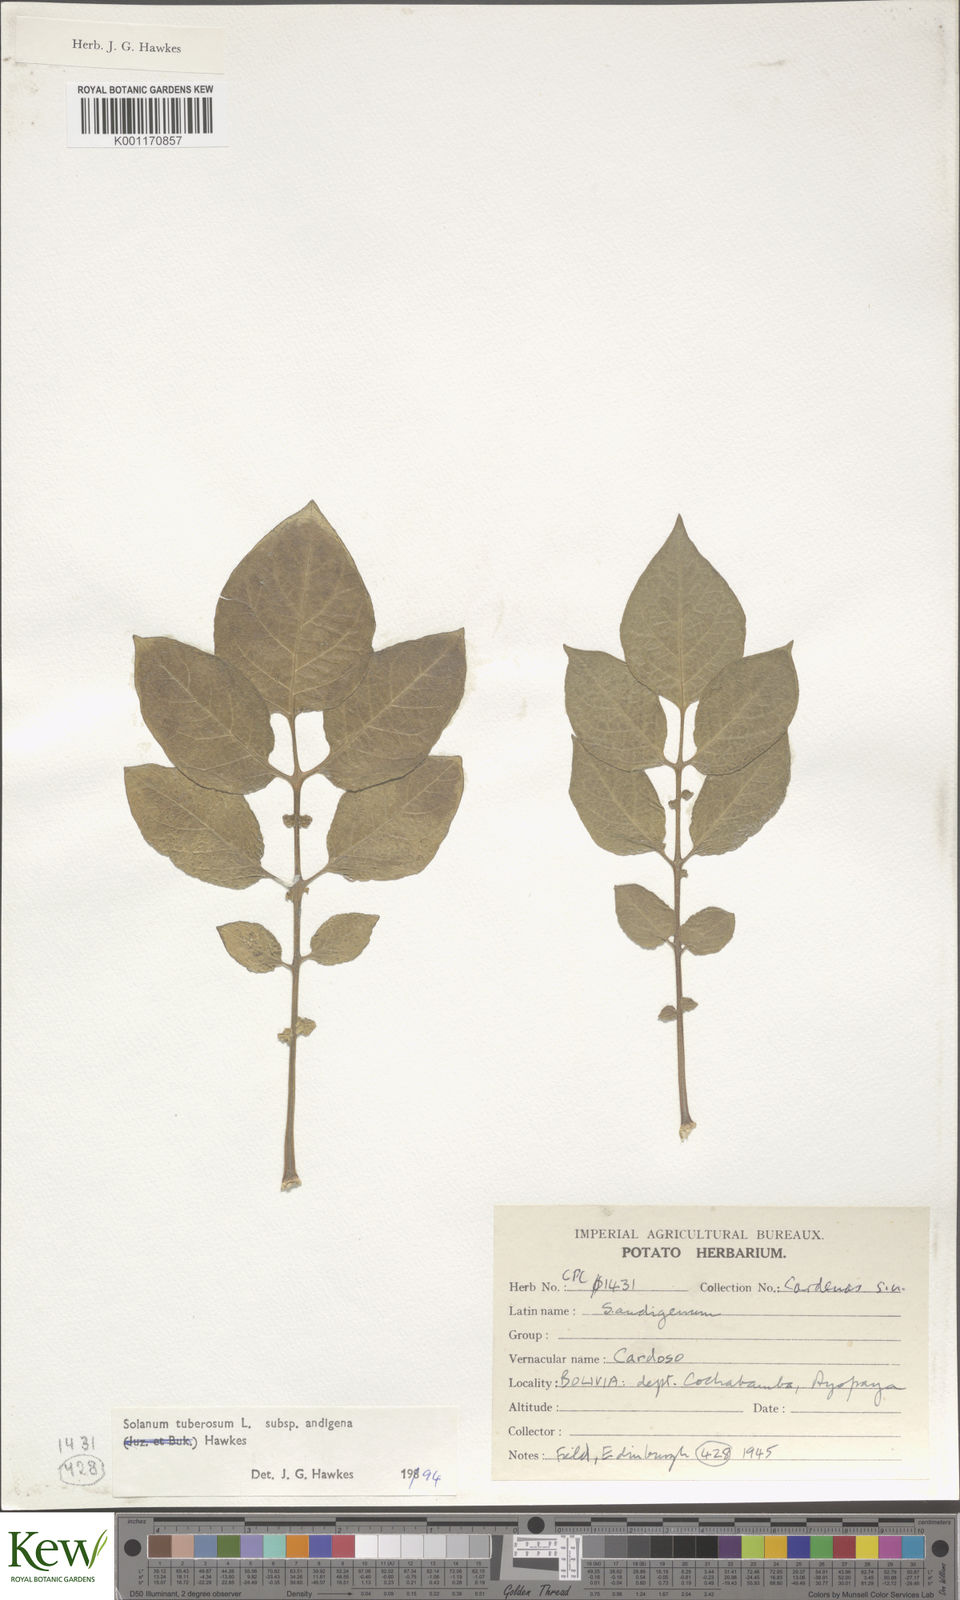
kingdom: Plantae
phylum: Tracheophyta
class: Magnoliopsida
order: Solanales
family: Solanaceae
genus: Solanum
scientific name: Solanum tuberosum
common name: Potato
